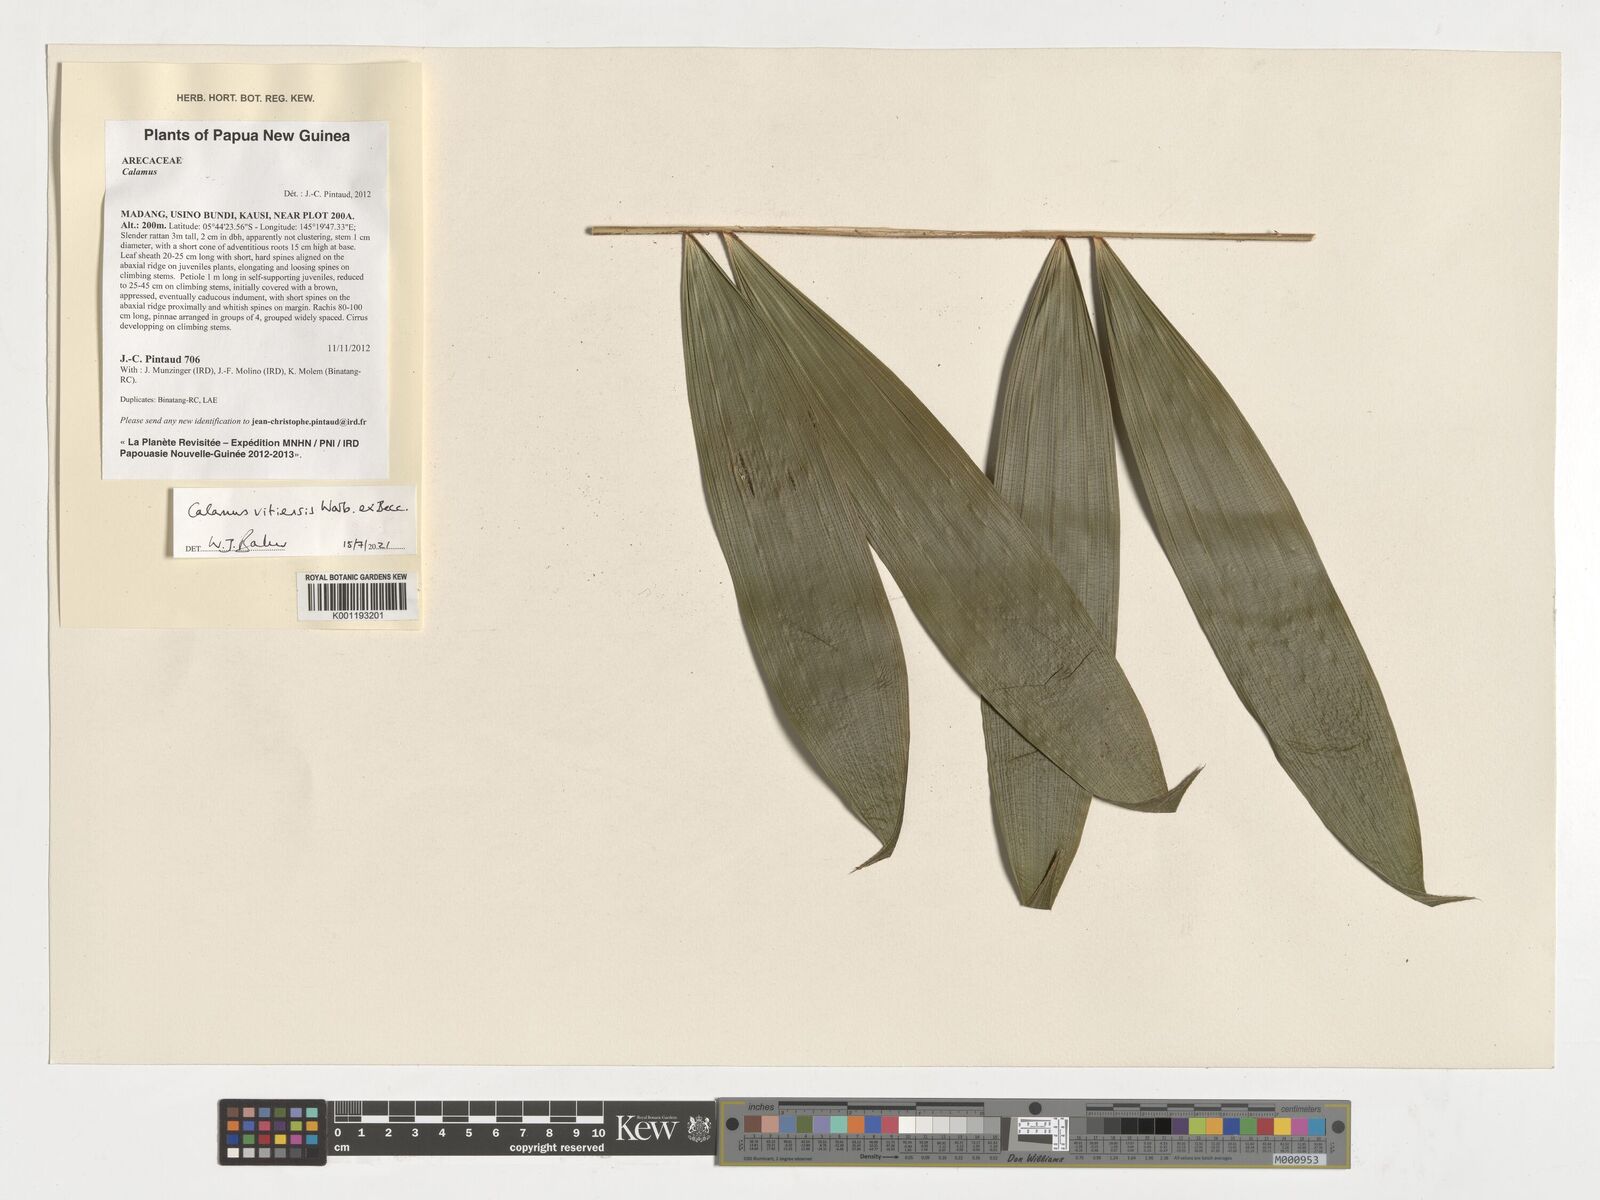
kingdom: Plantae
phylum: Tracheophyta
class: Liliopsida
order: Arecales
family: Arecaceae
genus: Calamus
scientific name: Calamus vitiensis
